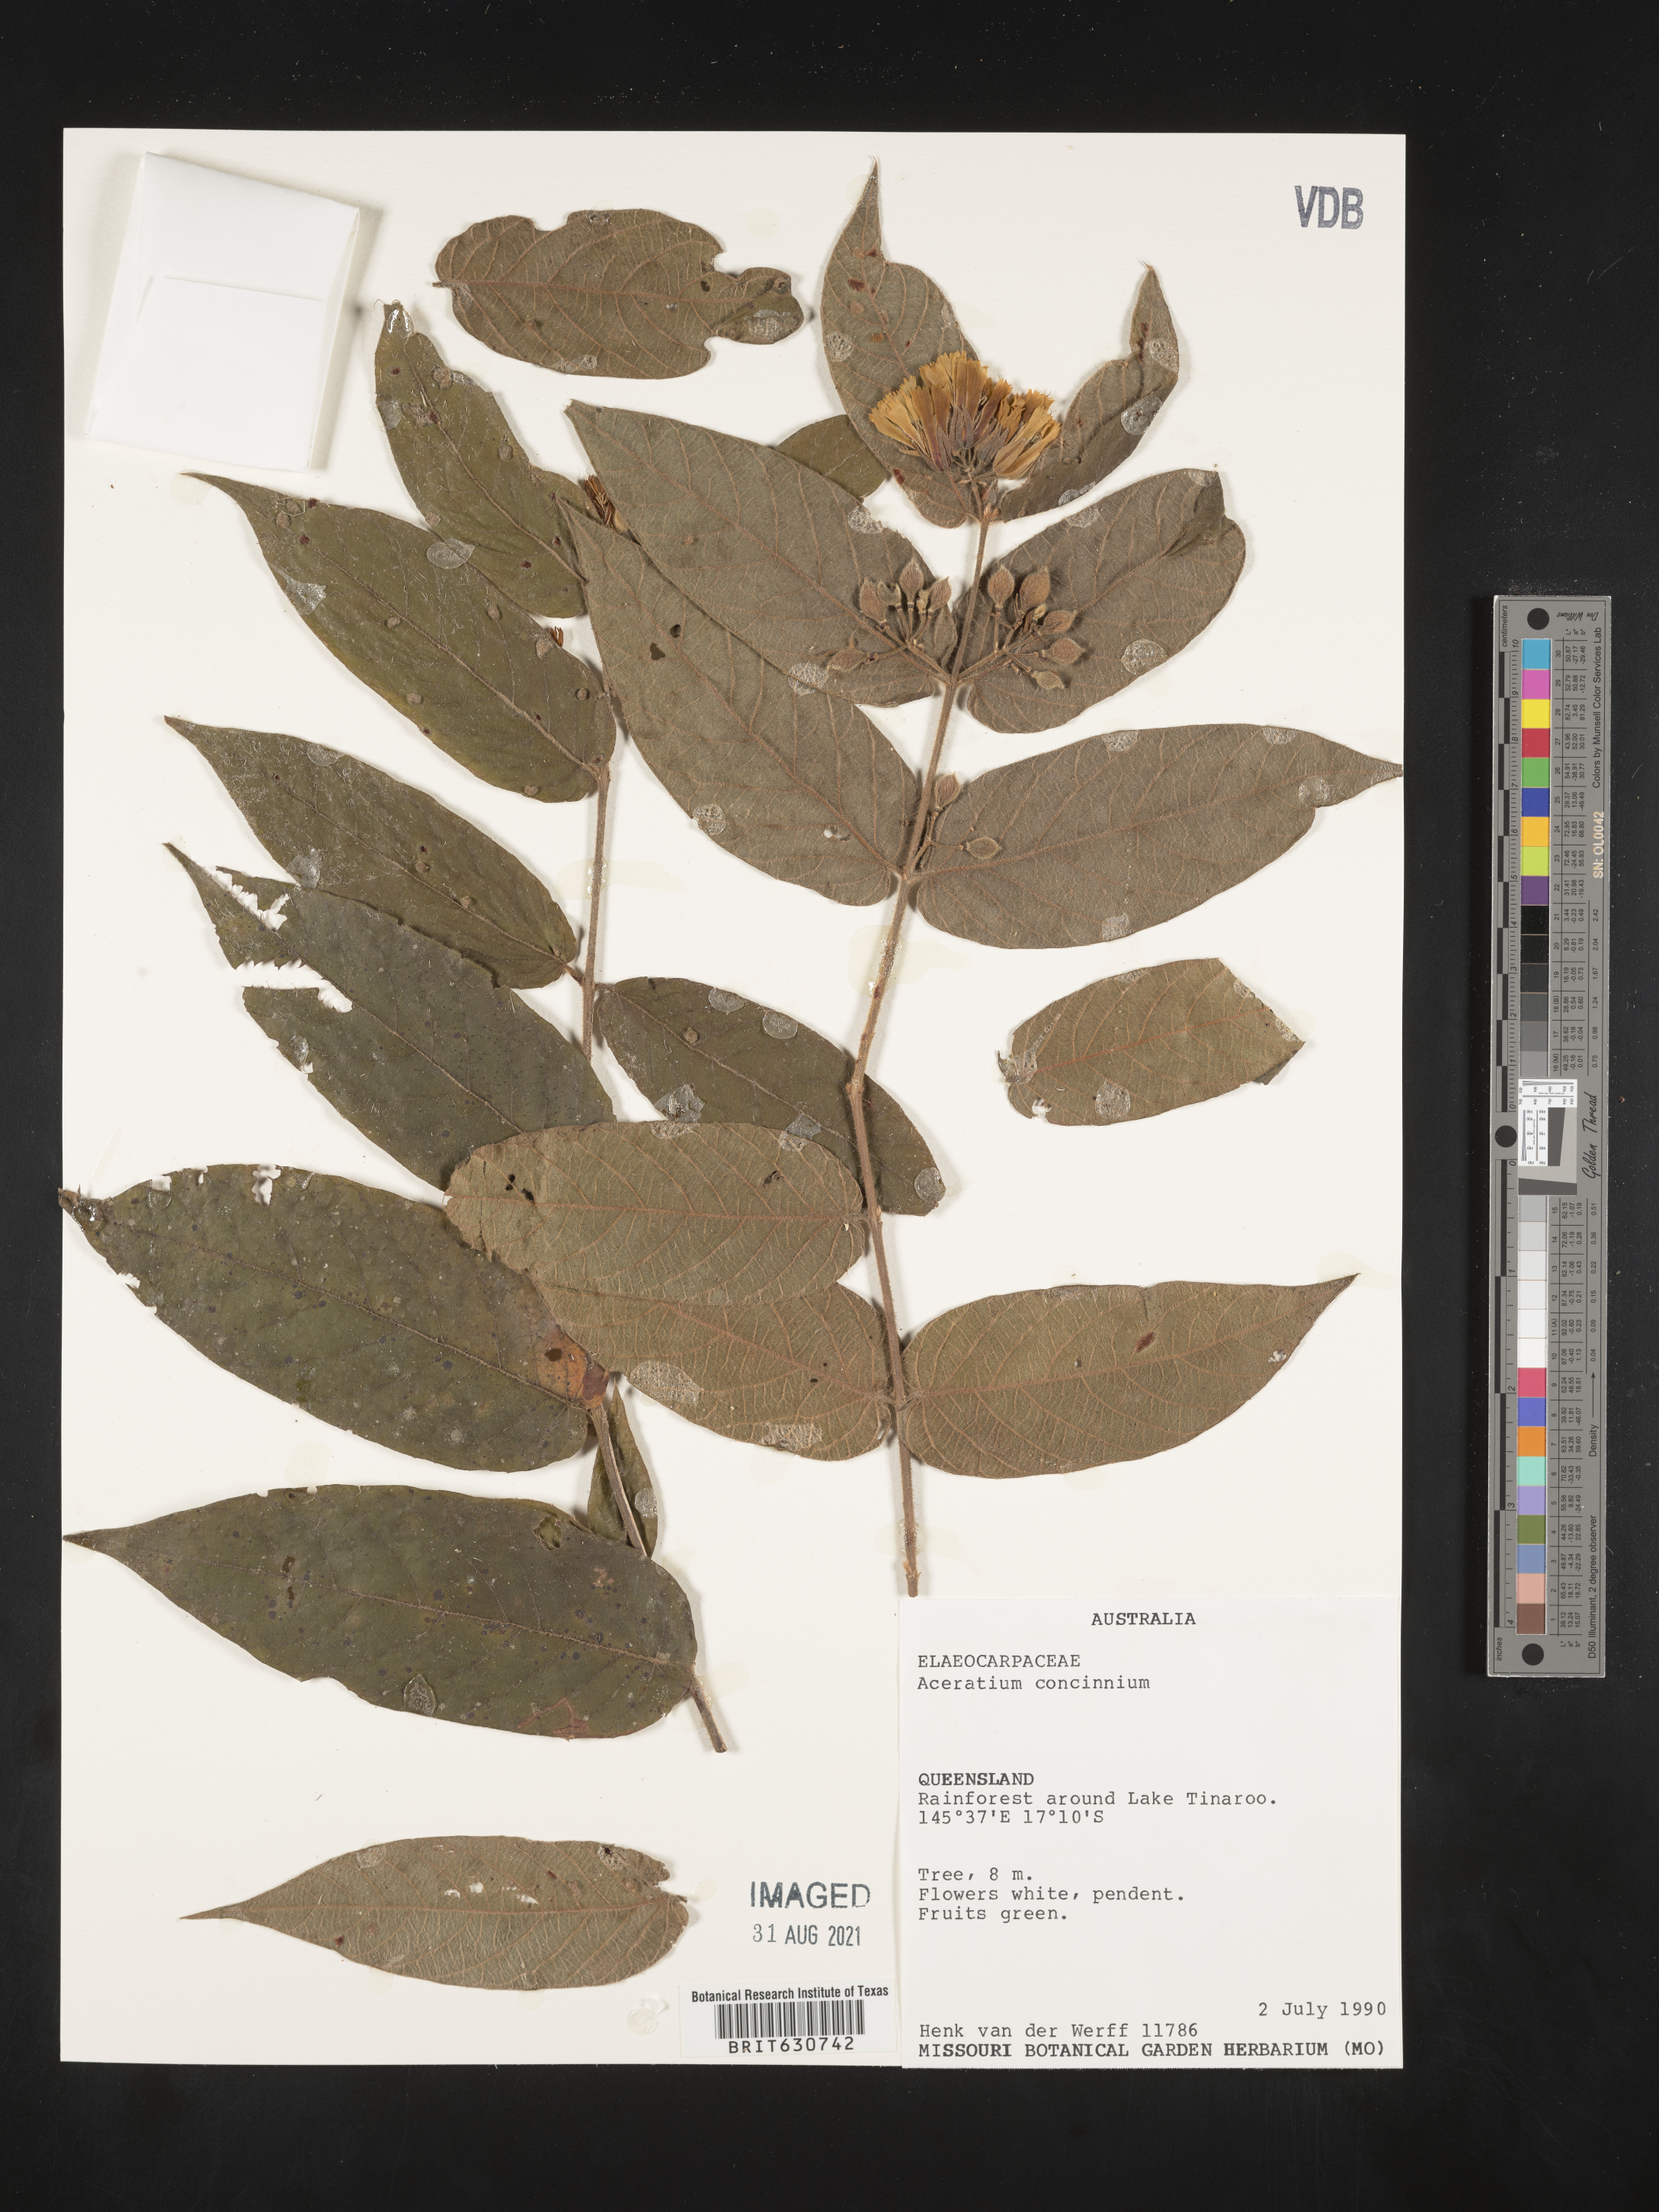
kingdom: Plantae
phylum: Tracheophyta
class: Magnoliopsida
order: Oxalidales
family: Elaeocarpaceae
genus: Aceratium
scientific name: Aceratium
